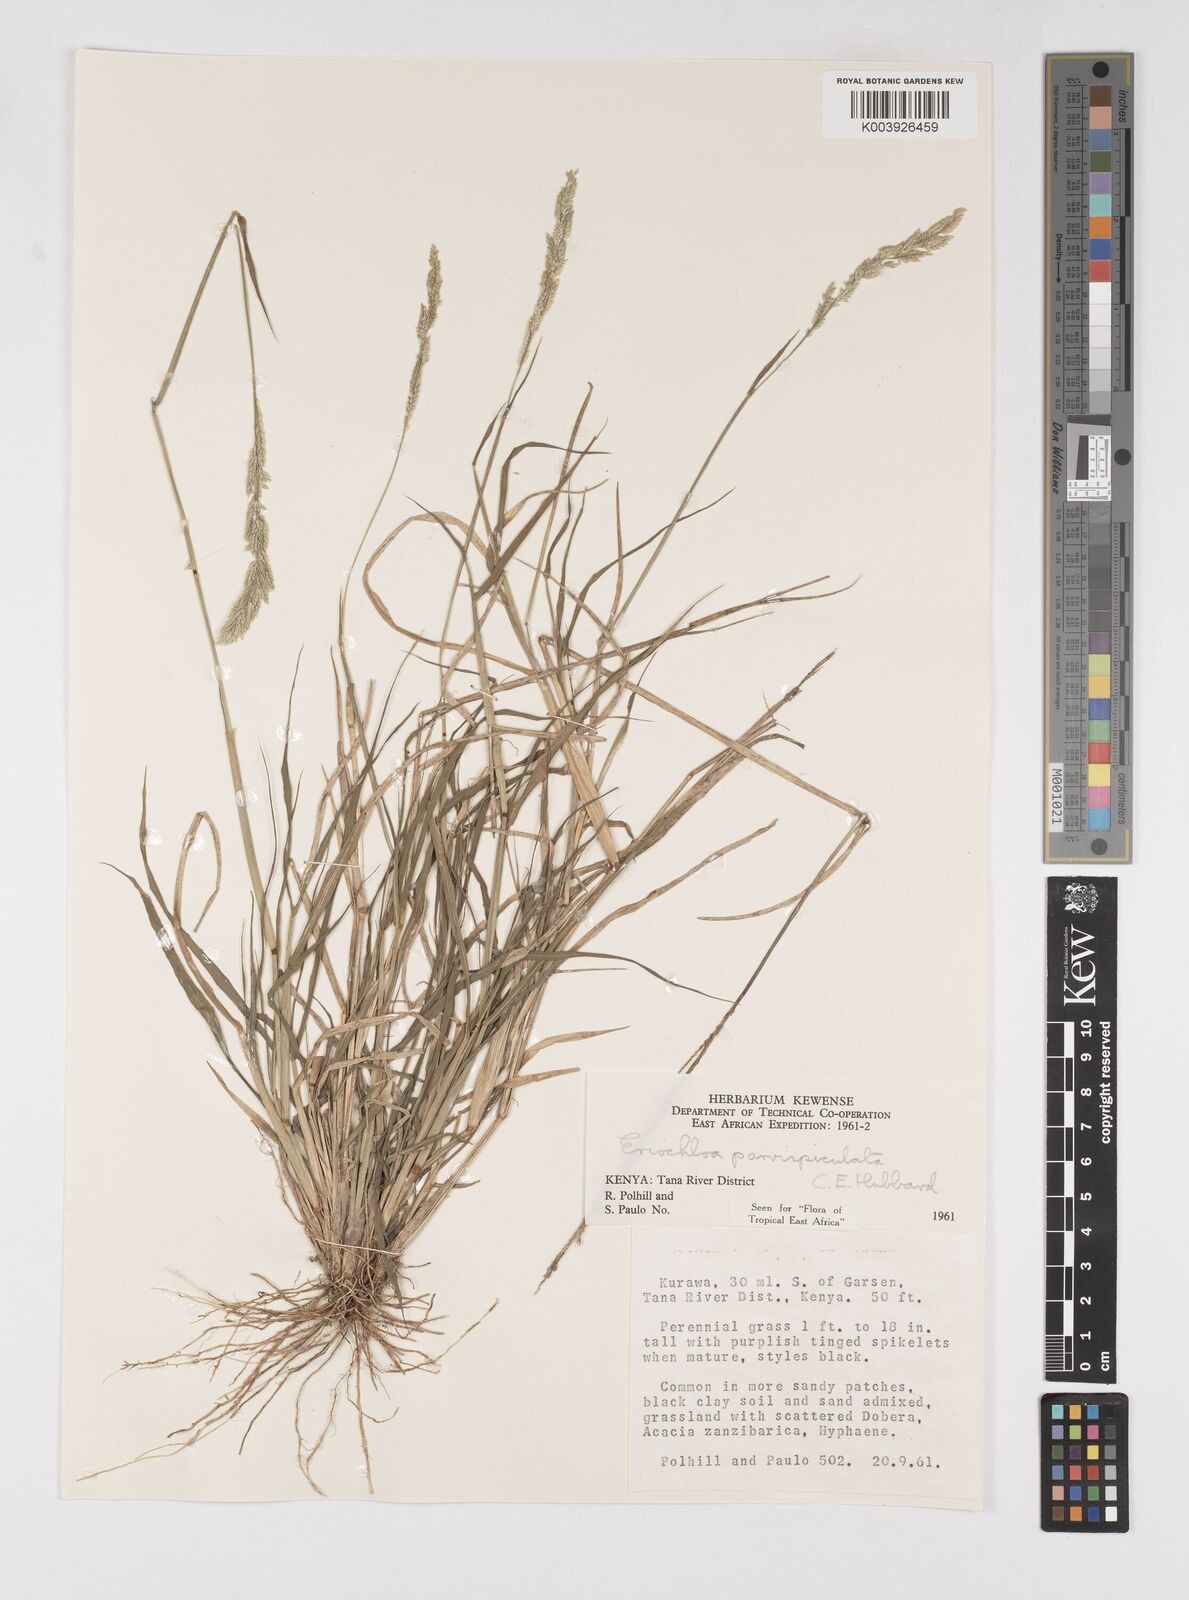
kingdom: Plantae
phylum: Tracheophyta
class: Liliopsida
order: Poales
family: Poaceae
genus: Eriochloa
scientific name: Eriochloa parvispiculata
